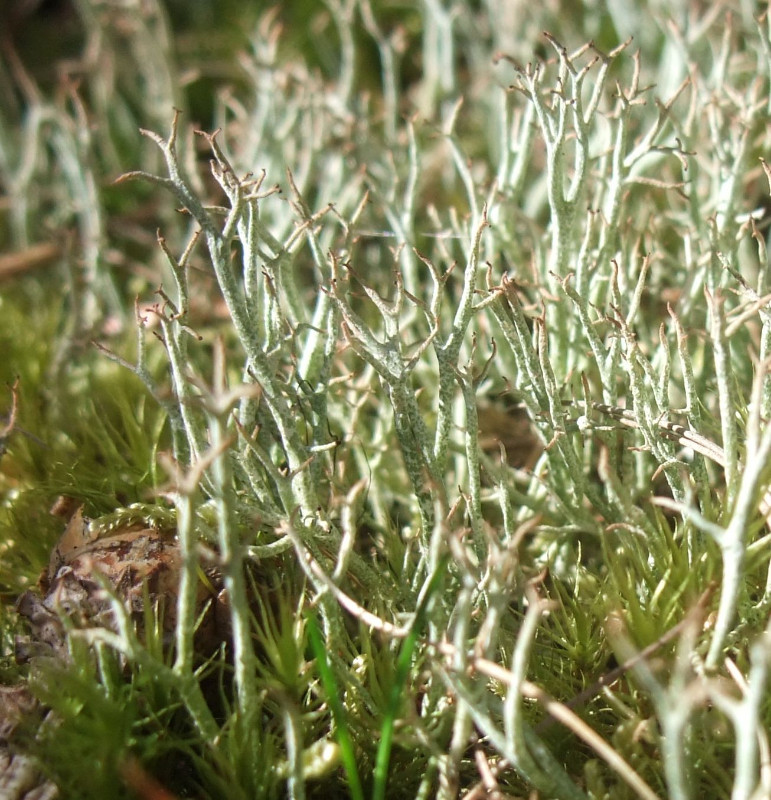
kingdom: Fungi
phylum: Ascomycota
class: Lecanoromycetes
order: Lecanorales
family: Cladoniaceae
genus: Cladonia
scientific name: Cladonia furcata
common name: kløftet bægerlav
